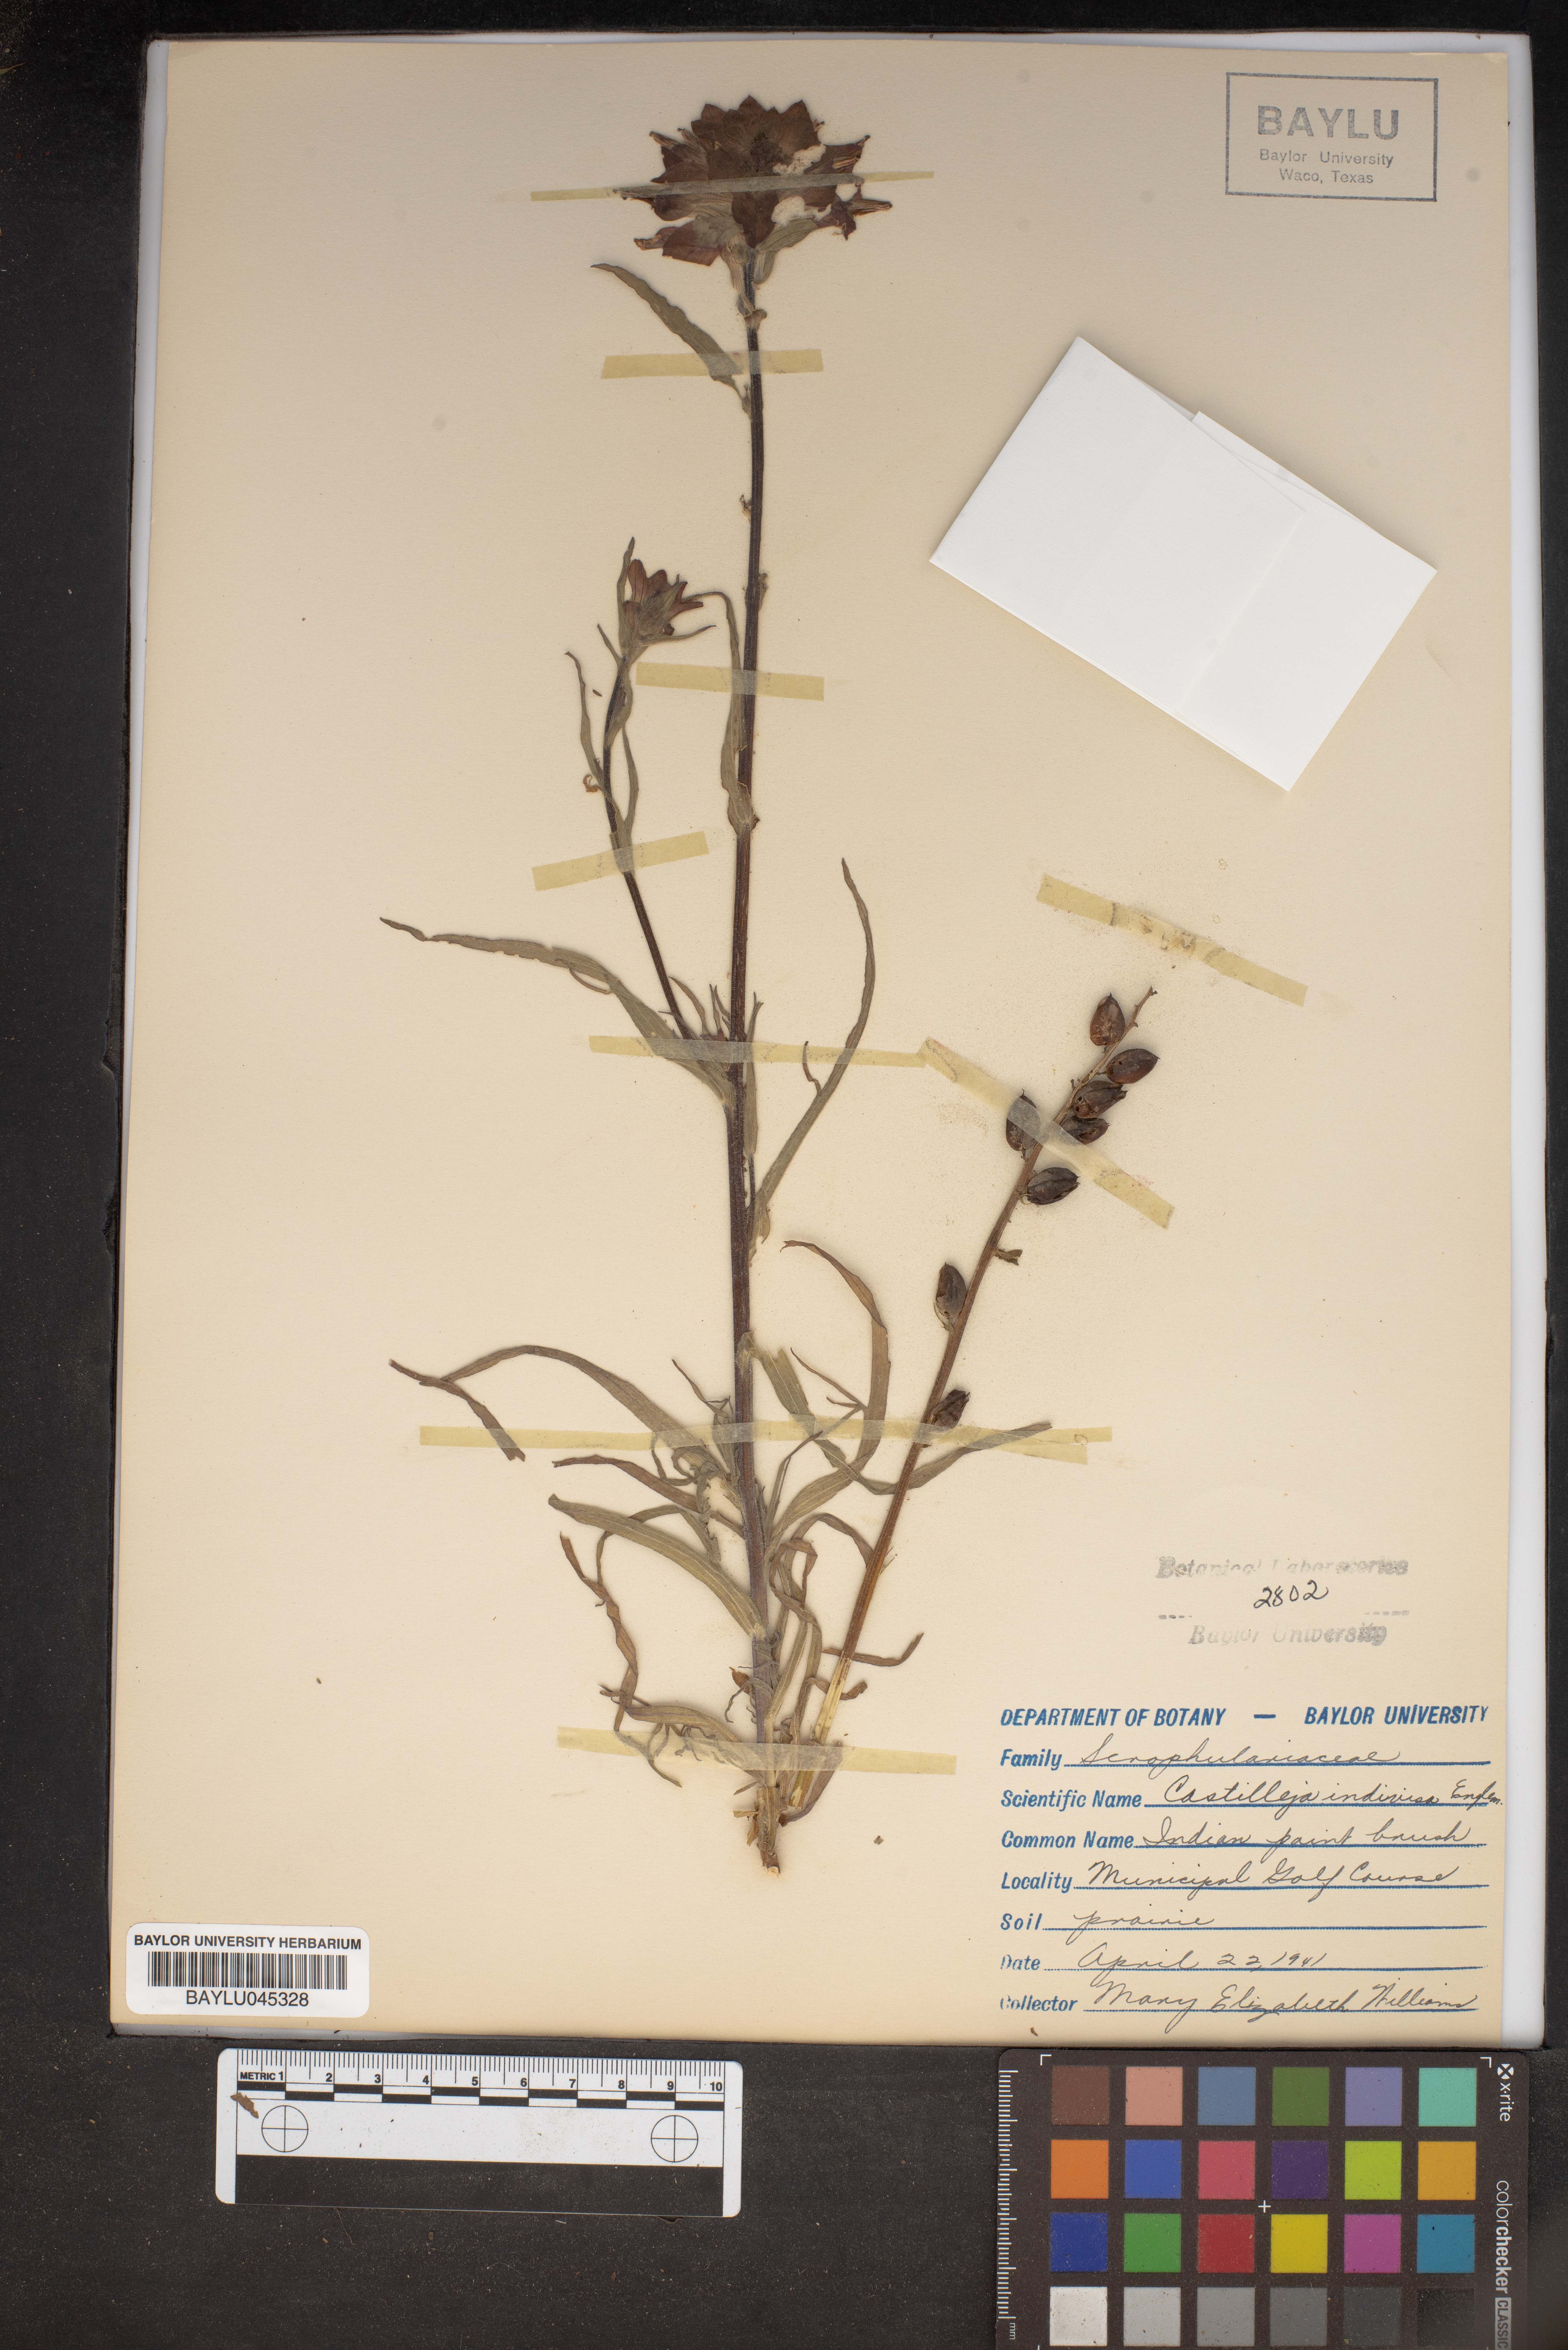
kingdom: Plantae
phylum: Tracheophyta
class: Magnoliopsida
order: Lamiales
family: Orobanchaceae
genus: Castilleja
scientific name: Castilleja indivisa
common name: Texas paintbrush
